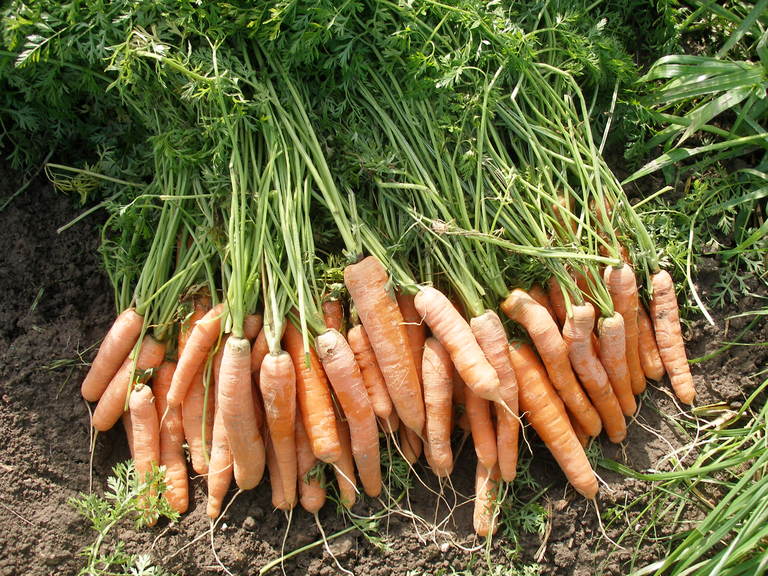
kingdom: Plantae
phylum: Tracheophyta
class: Magnoliopsida
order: Apiales
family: Apiaceae
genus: Daucus
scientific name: Daucus carota
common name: Wild carrot
